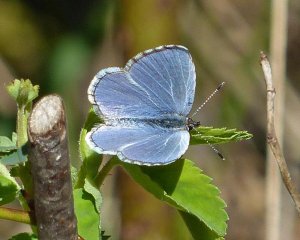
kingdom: Animalia
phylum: Arthropoda
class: Insecta
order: Lepidoptera
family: Lycaenidae
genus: Celastrina
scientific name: Celastrina ladon
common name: Echo Azure
